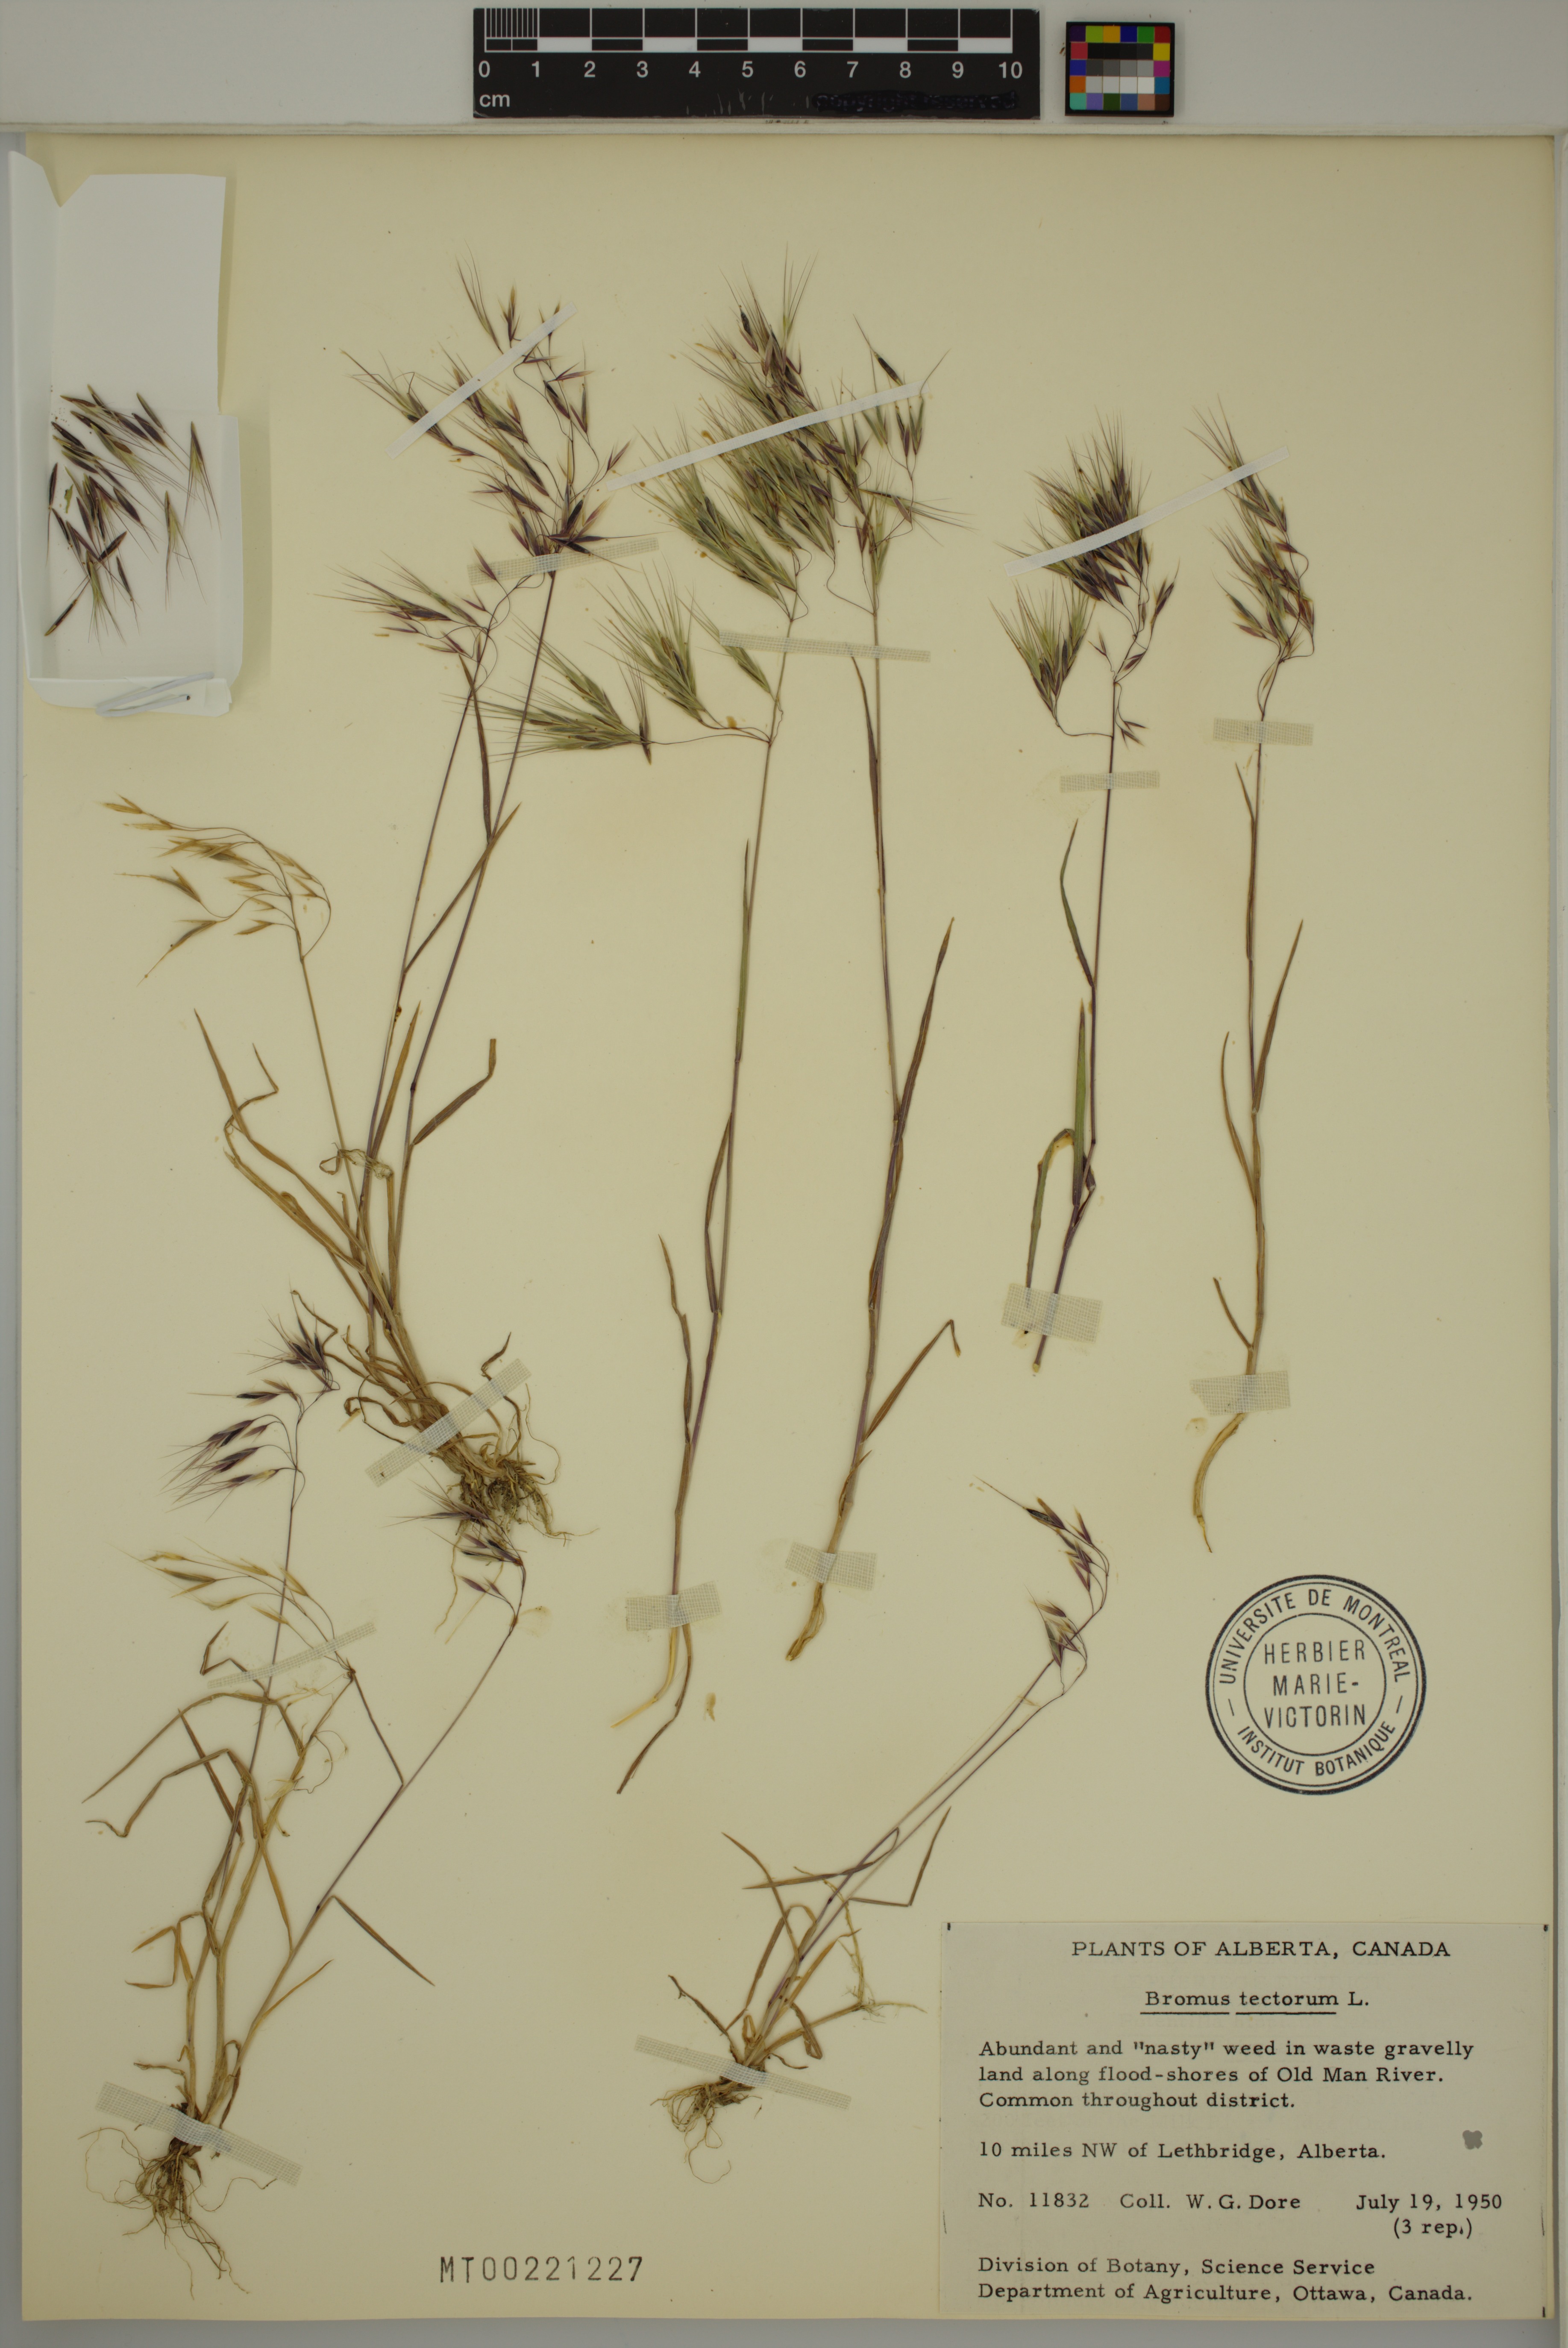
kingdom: Plantae
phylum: Tracheophyta
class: Liliopsida
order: Poales
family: Poaceae
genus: Bromus
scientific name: Bromus tectorum
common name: Cheatgrass
